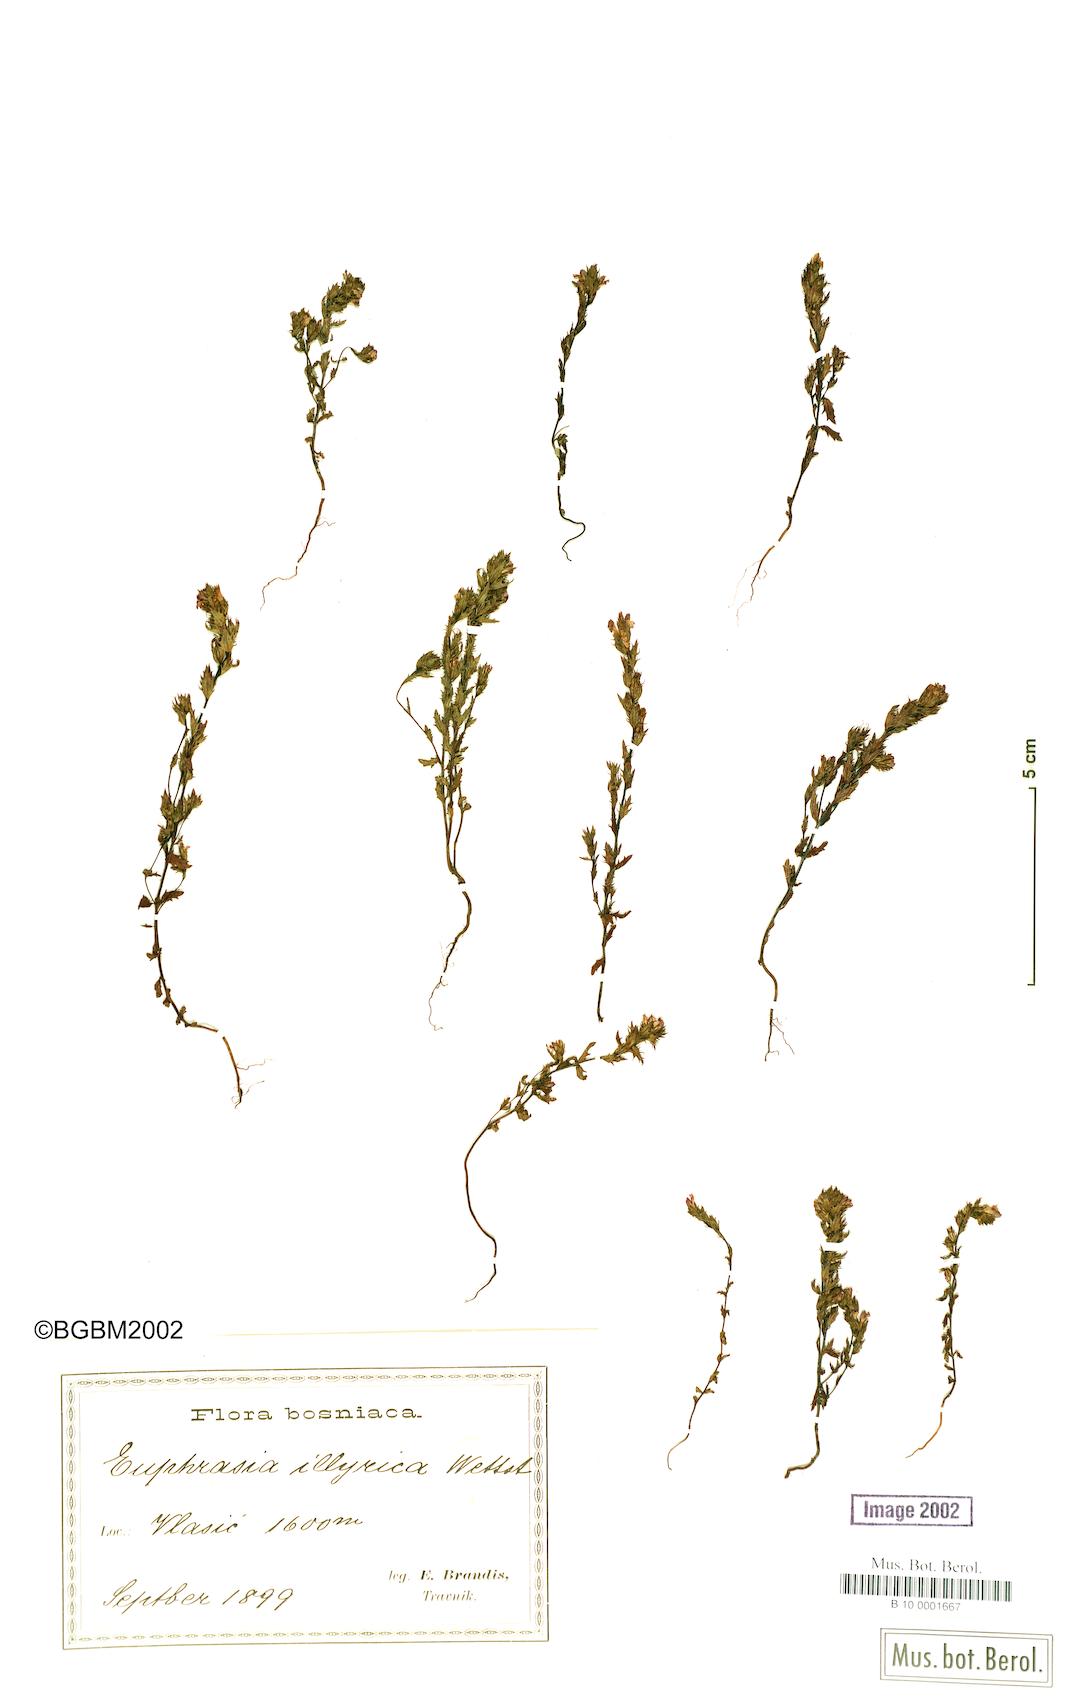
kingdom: Plantae
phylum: Tracheophyta
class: Magnoliopsida
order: Lamiales
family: Orobanchaceae
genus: Euphrasia
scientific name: Euphrasia illyrica
